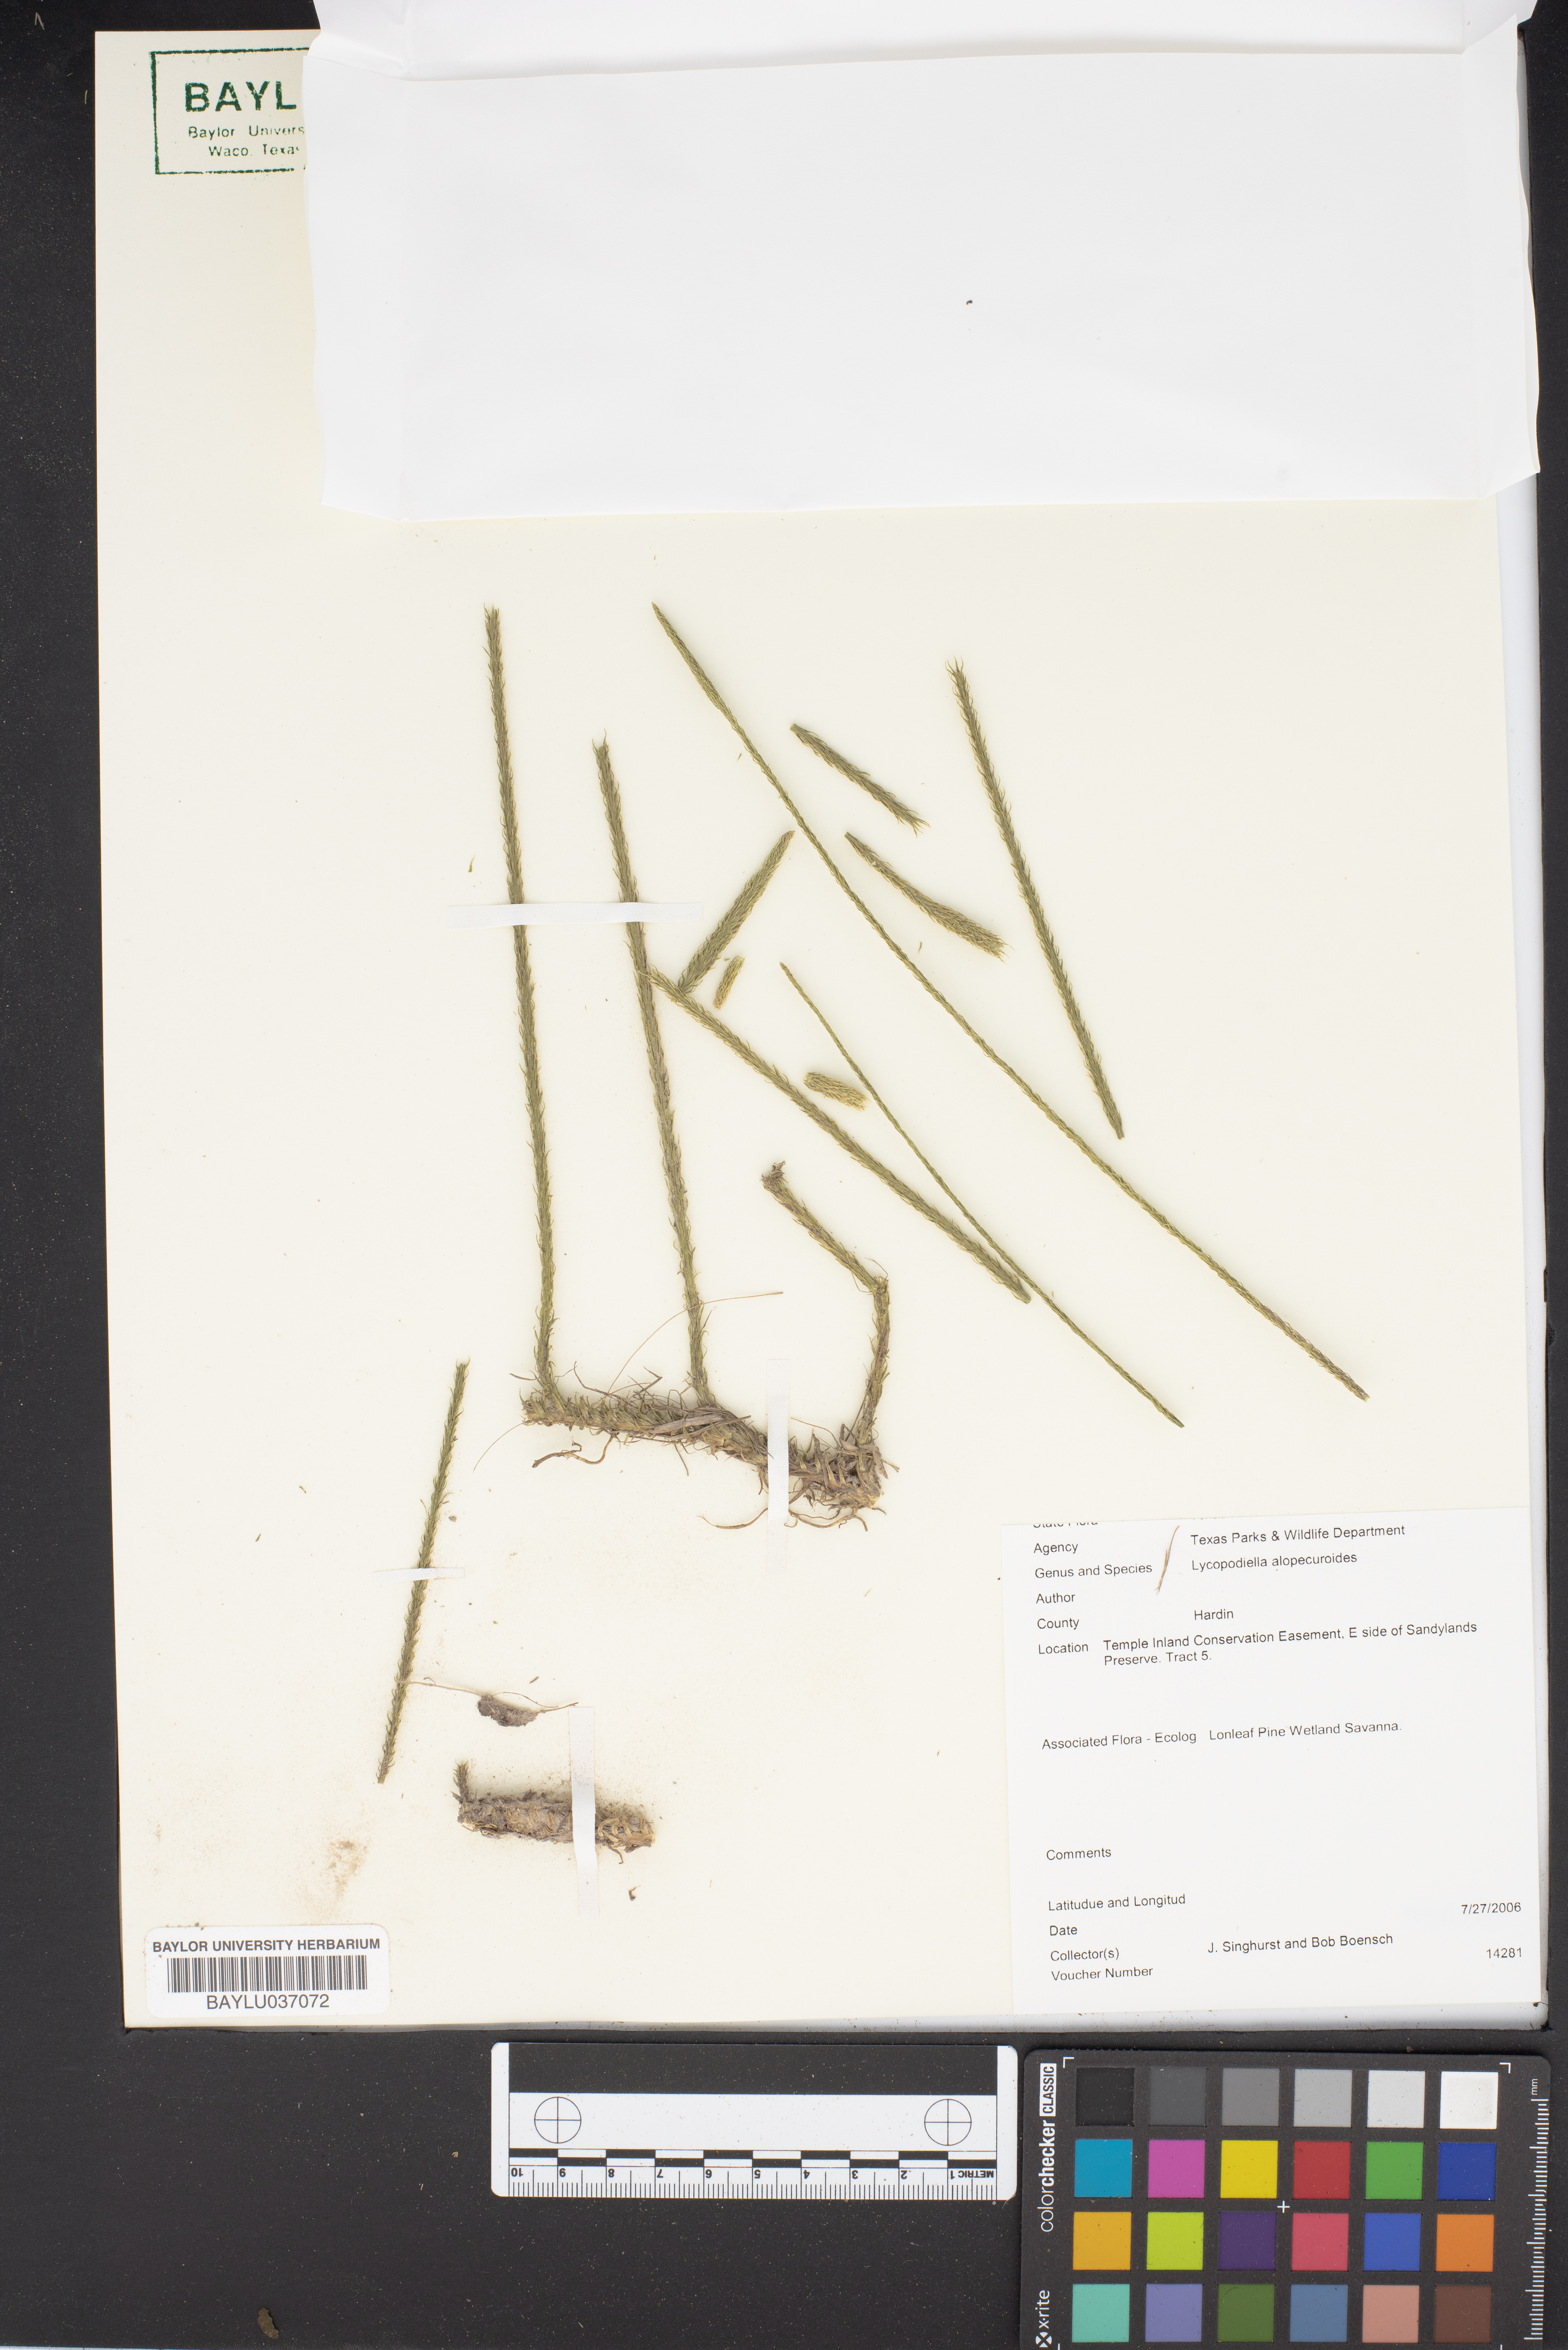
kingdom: Plantae
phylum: Tracheophyta
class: Lycopodiopsida
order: Lycopodiales
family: Lycopodiaceae
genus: Lycopodiella
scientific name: Lycopodiella alopecuroides
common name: Foxtail clubmoss
